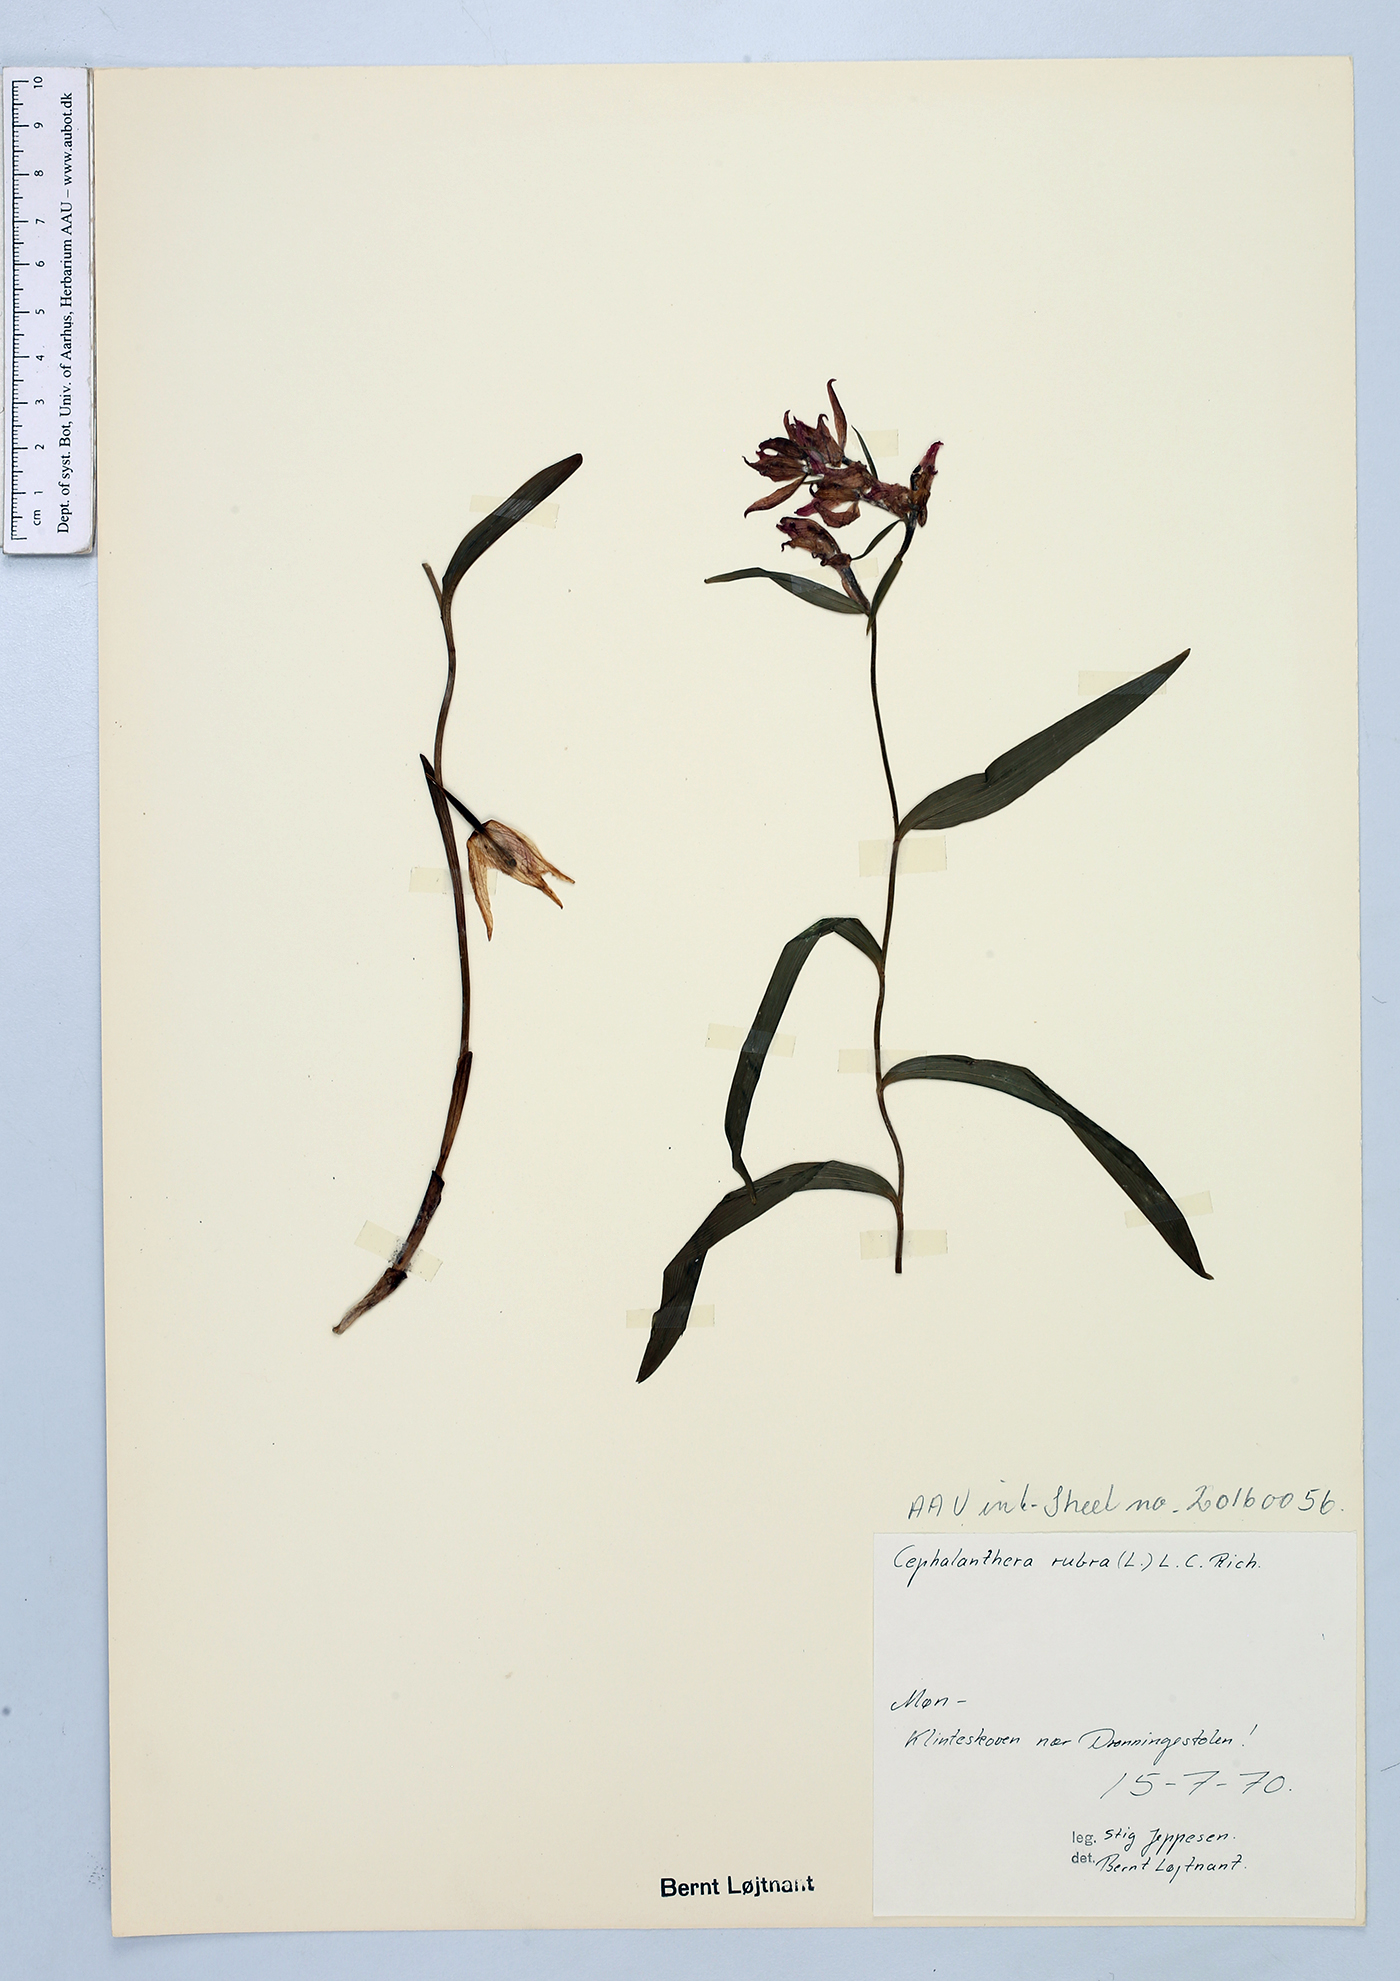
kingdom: Plantae
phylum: Tracheophyta
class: Liliopsida
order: Asparagales
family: Orchidaceae
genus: Cephalanthera
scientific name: Cephalanthera rubra
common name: Red helleborine
